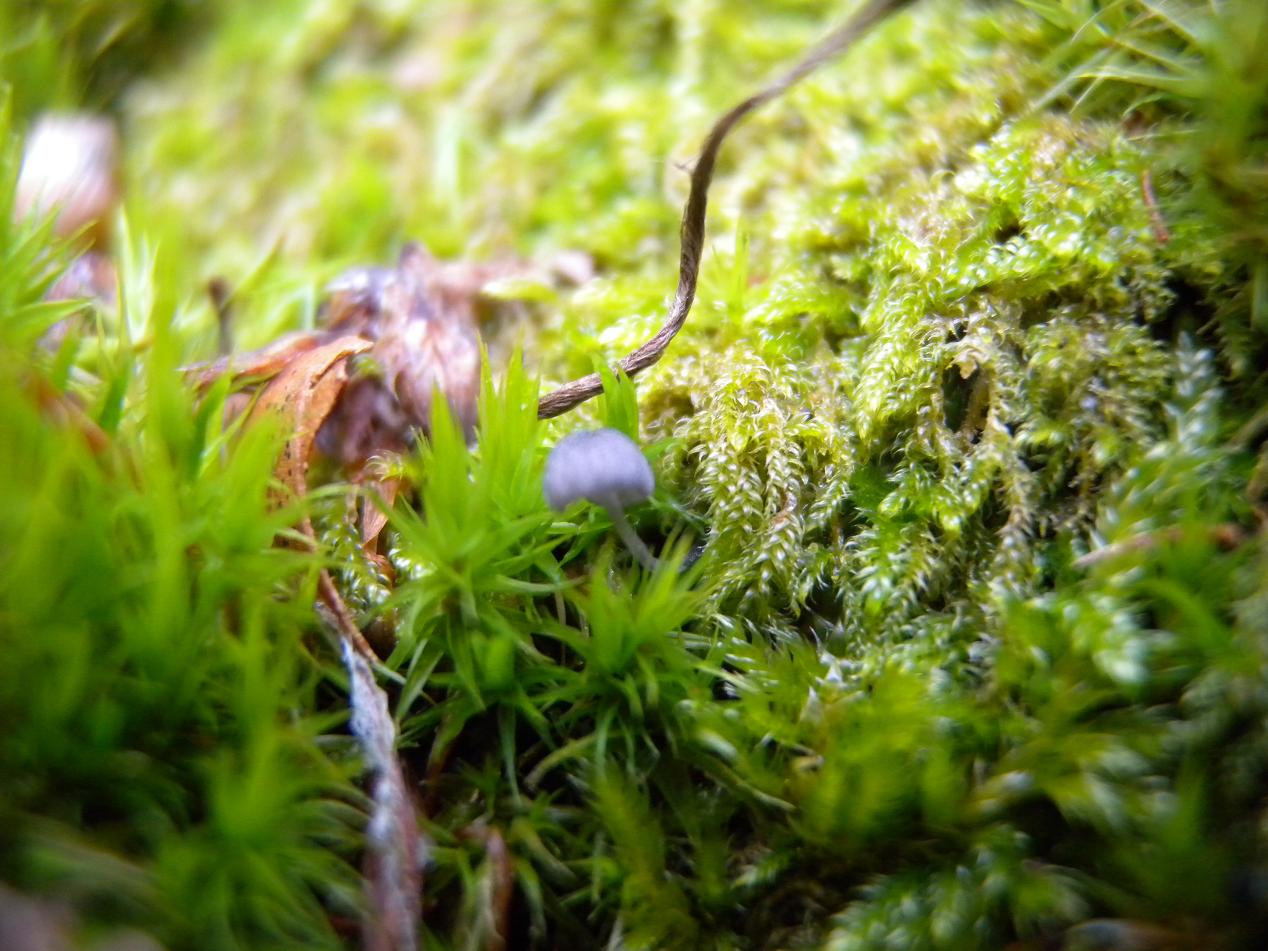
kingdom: Fungi
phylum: Basidiomycota
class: Agaricomycetes
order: Agaricales
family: Mycenaceae
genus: Mycena
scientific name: Mycena pseudocorticola
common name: gråblå bark-huesvamp
